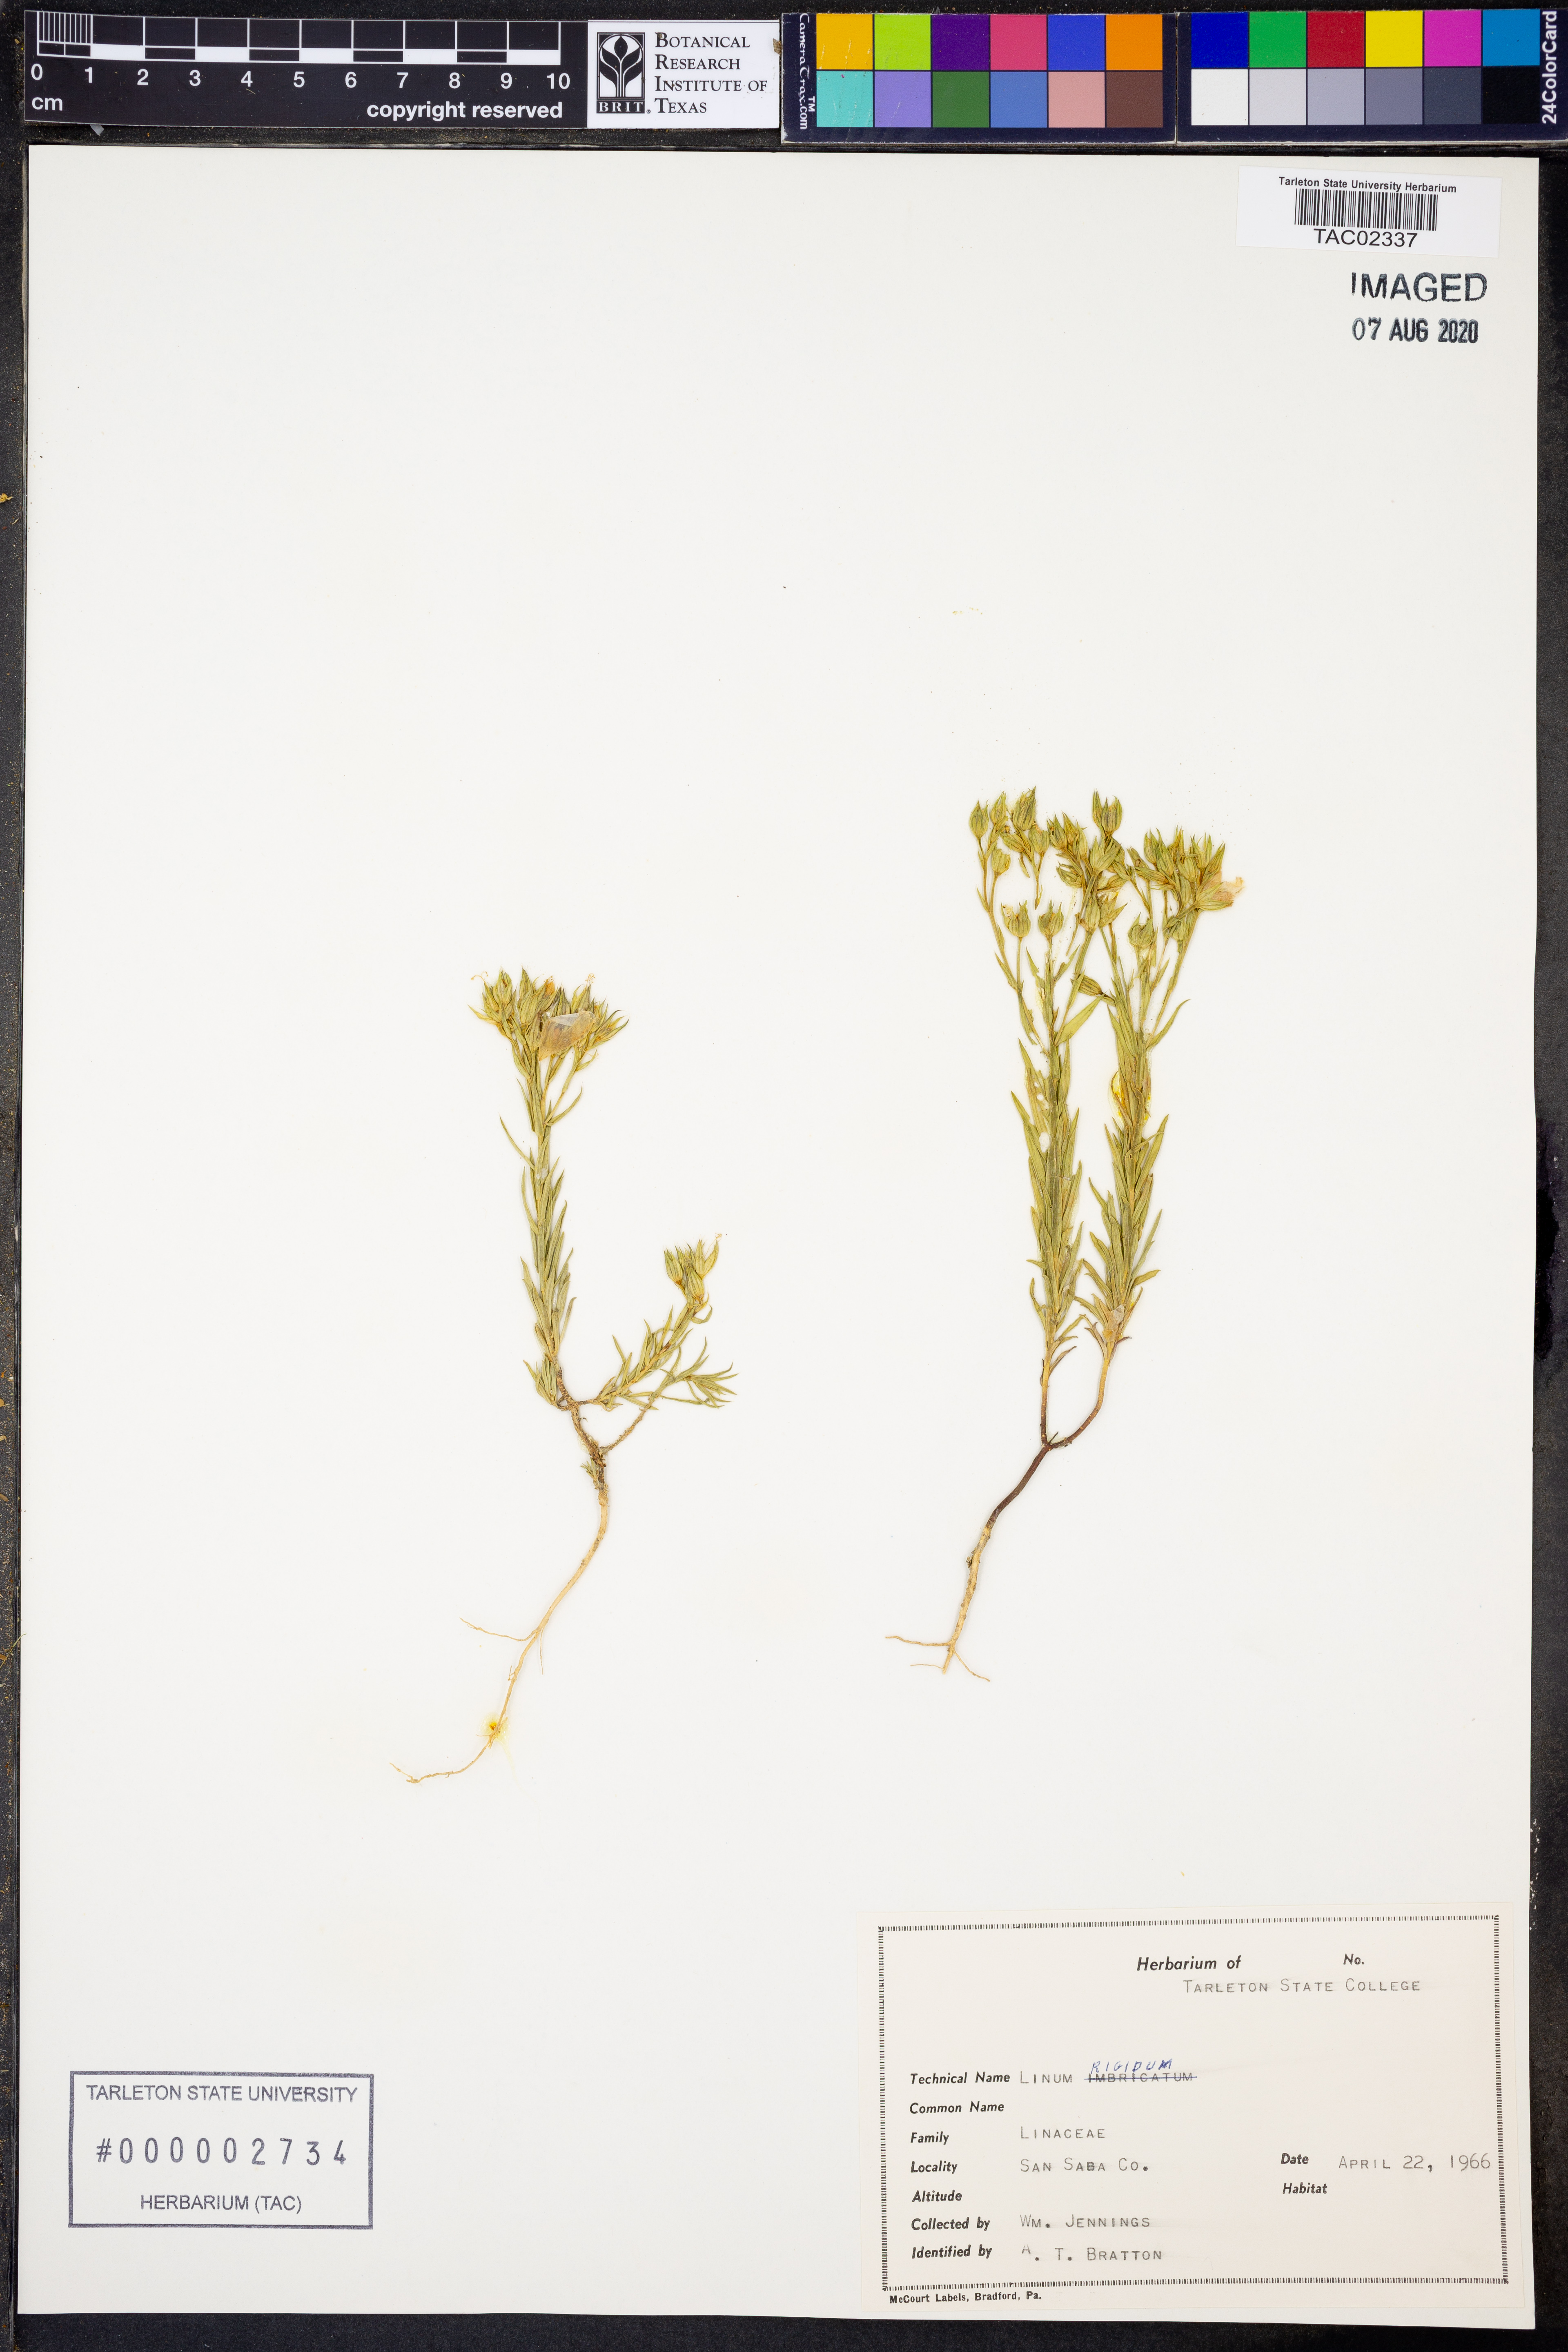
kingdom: Plantae
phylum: Tracheophyta
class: Magnoliopsida
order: Malpighiales
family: Linaceae
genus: Linum
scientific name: Linum rigidum
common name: Stiff-stem flax
